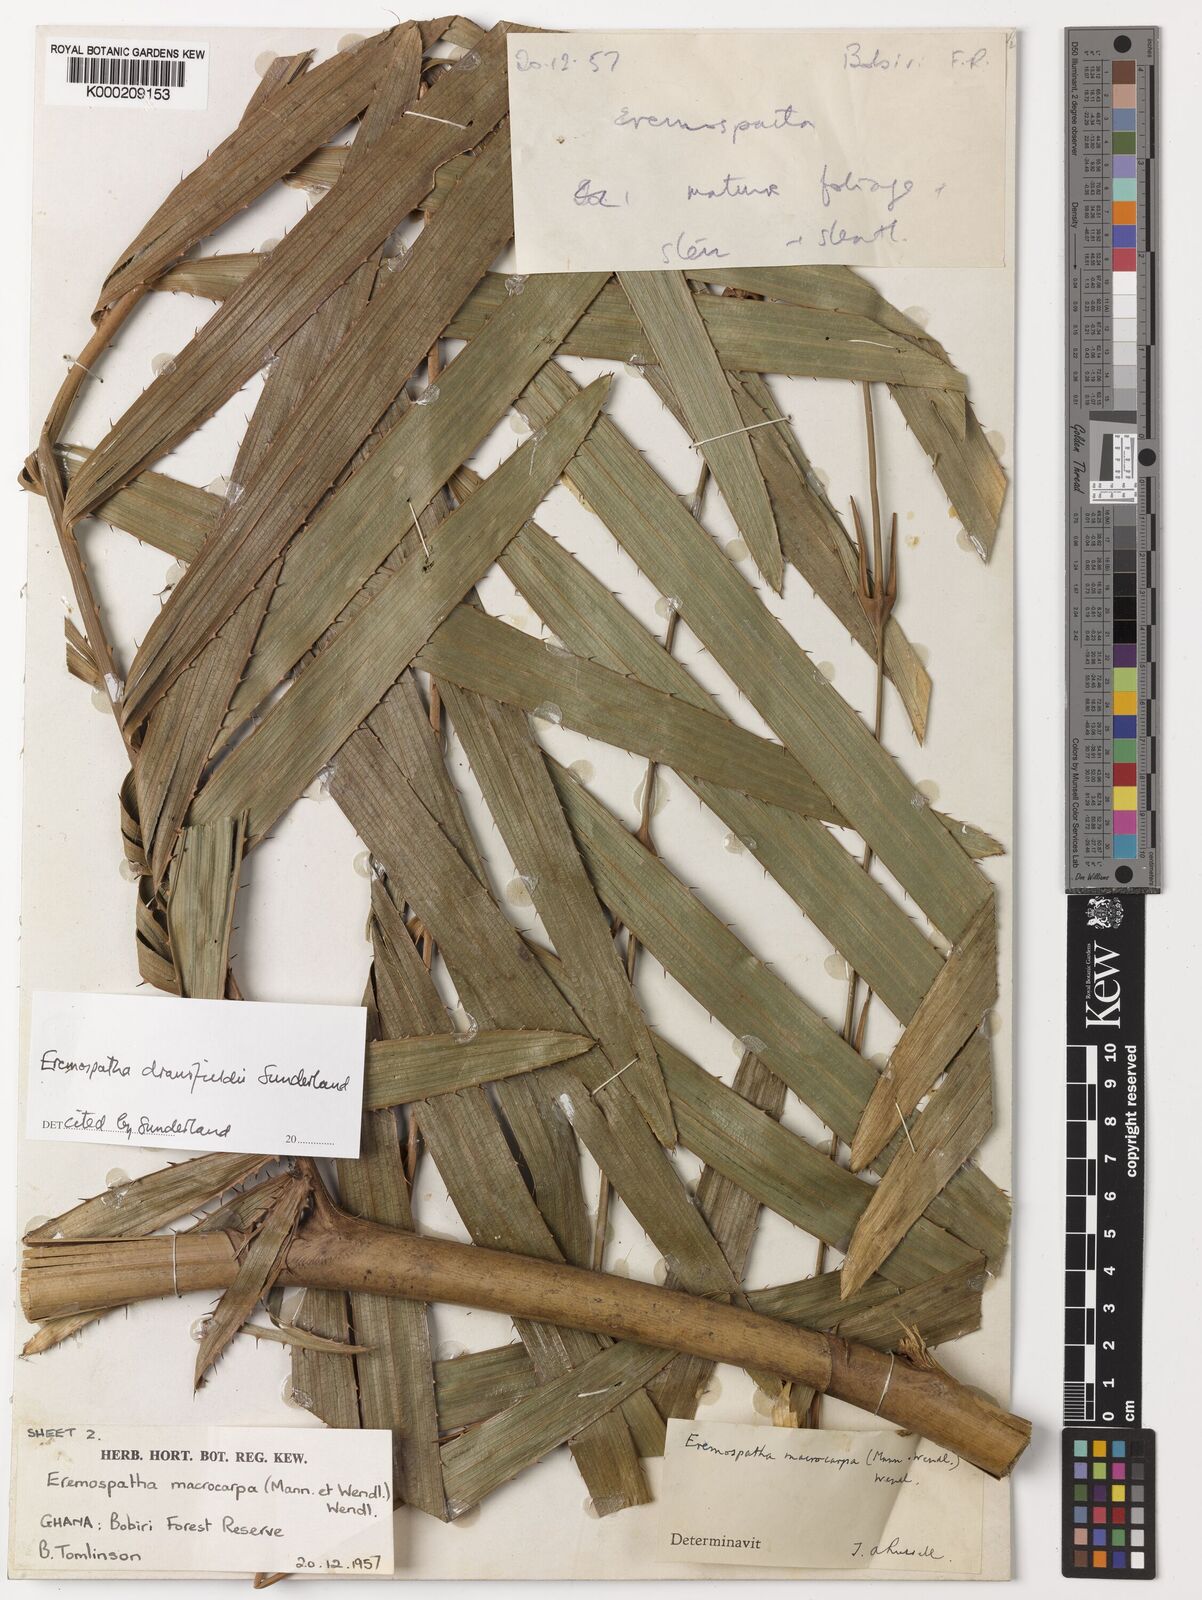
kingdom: Plantae
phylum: Tracheophyta
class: Liliopsida
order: Arecales
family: Arecaceae
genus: Eremospatha
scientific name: Eremospatha dransfieldii
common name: Rattan
